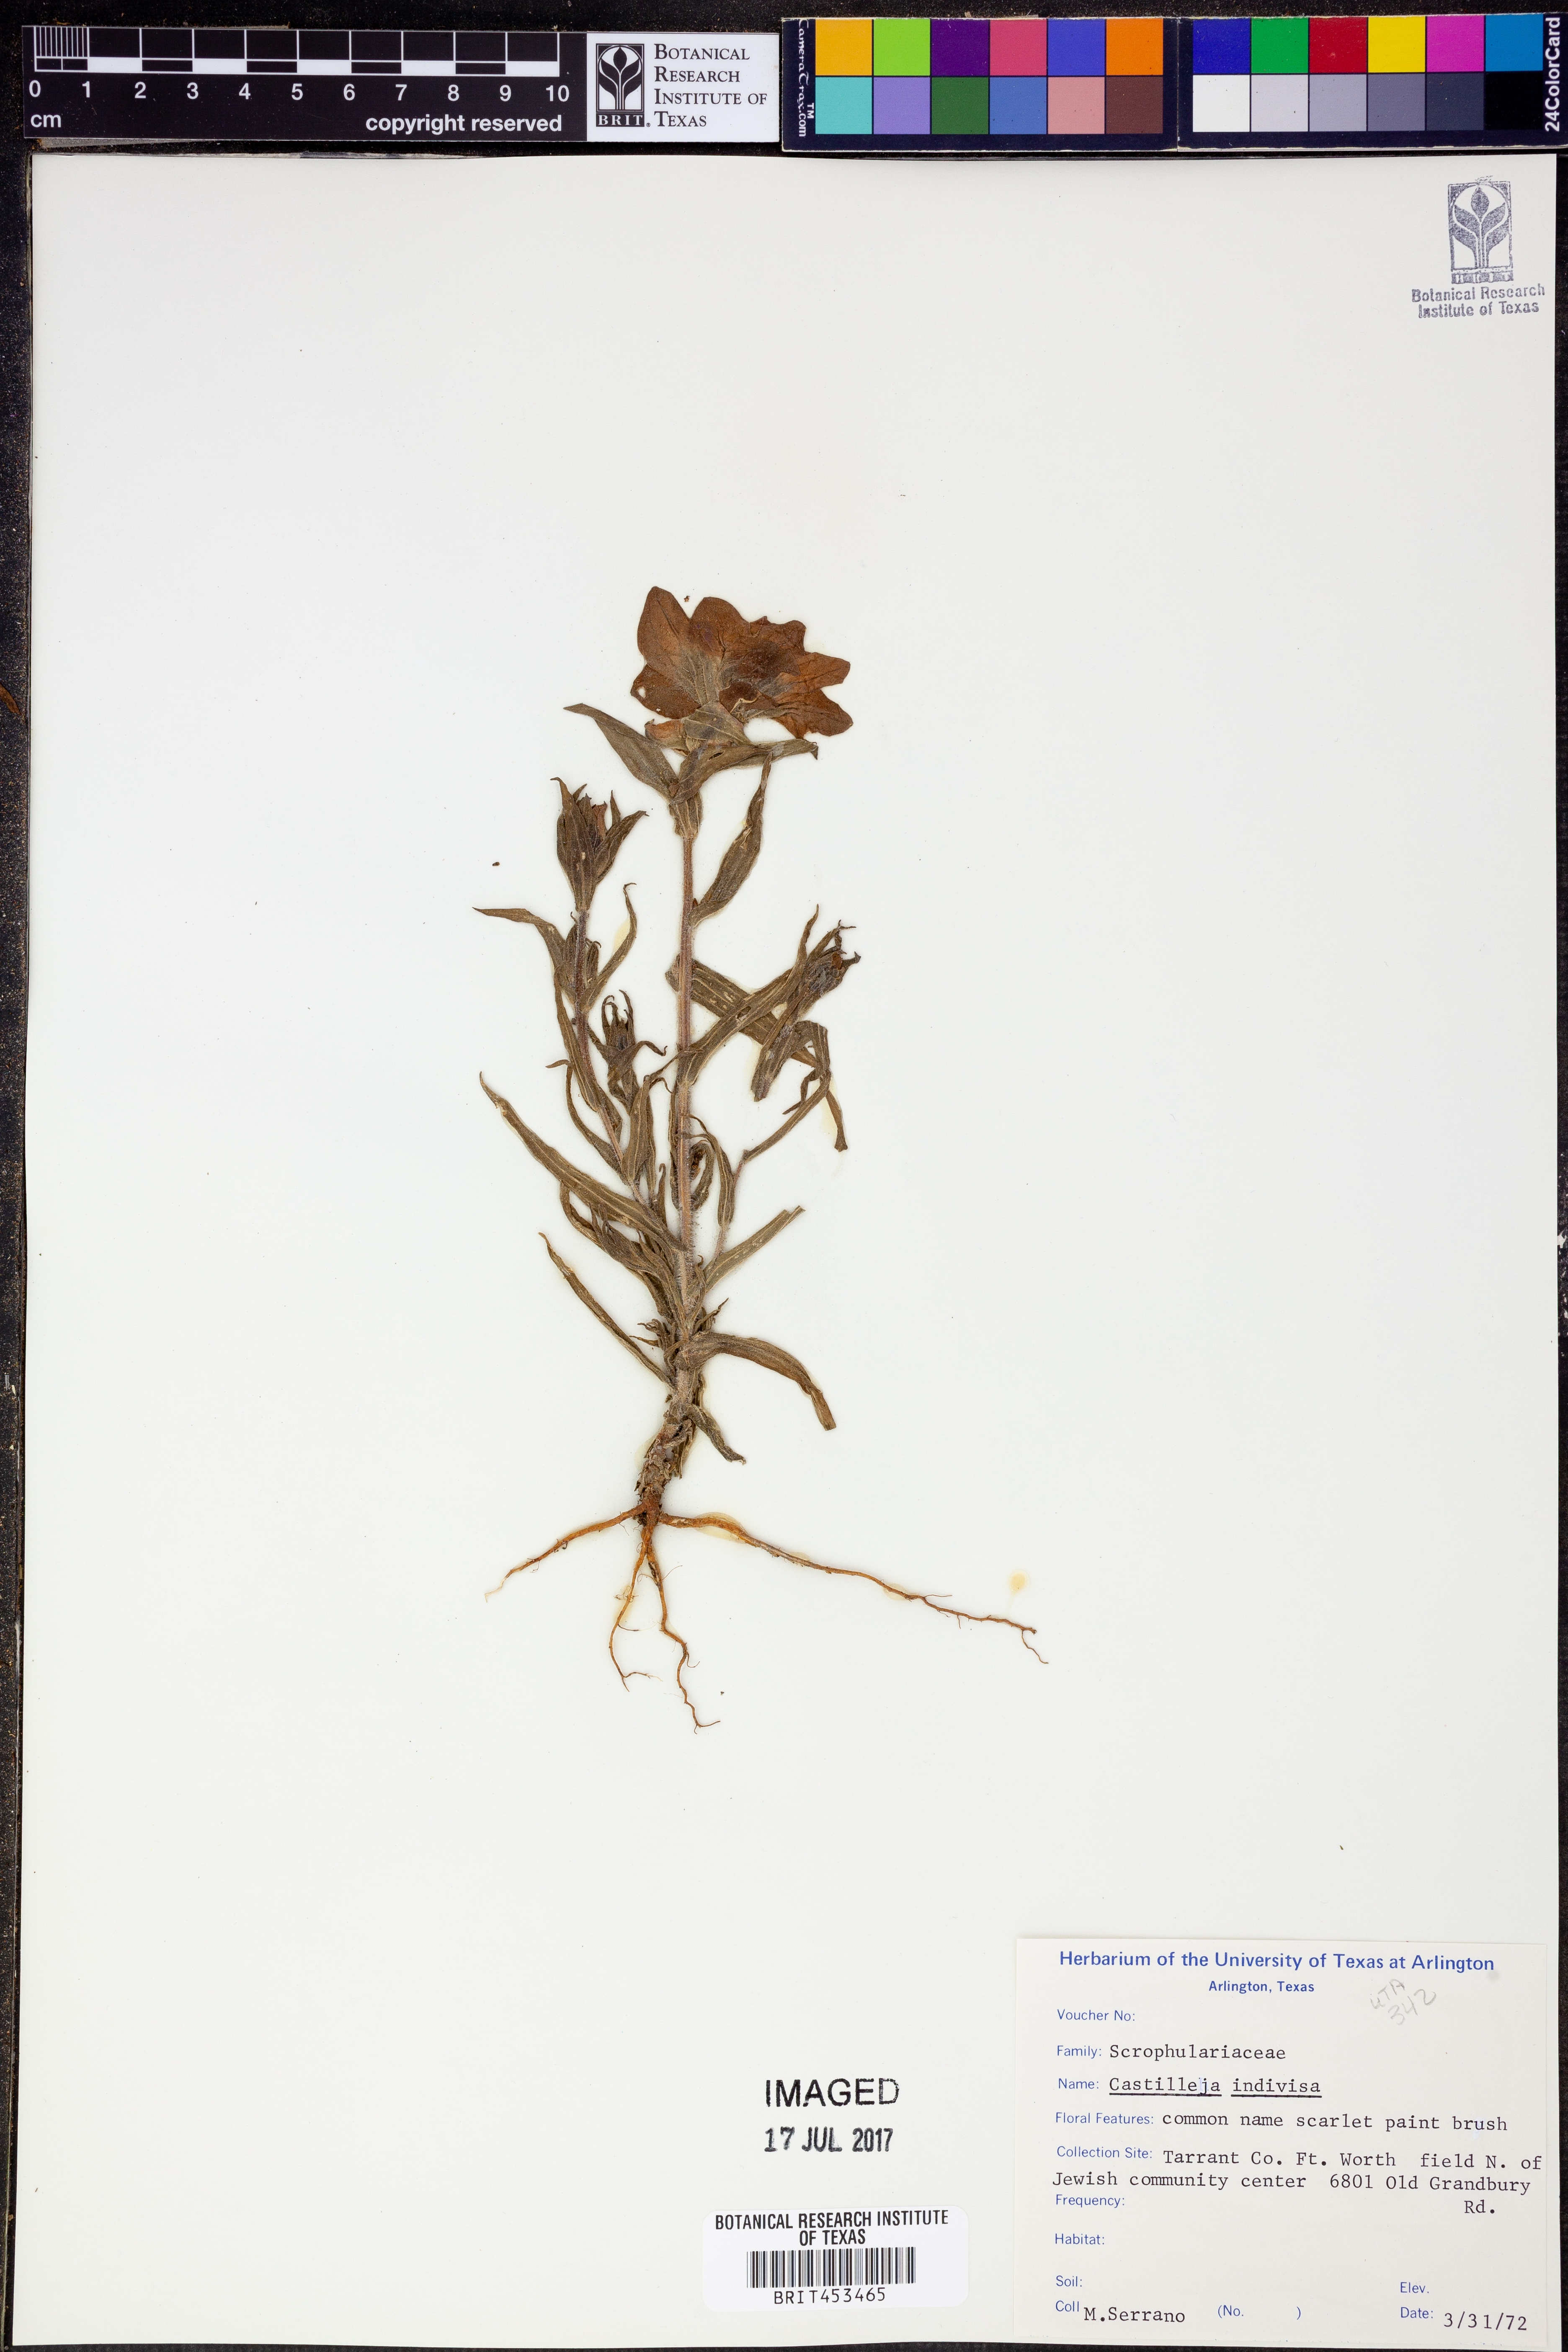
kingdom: Plantae
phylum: Tracheophyta
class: Magnoliopsida
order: Lamiales
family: Orobanchaceae
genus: Castilleja
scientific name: Castilleja indivisa
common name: Texas paintbrush
